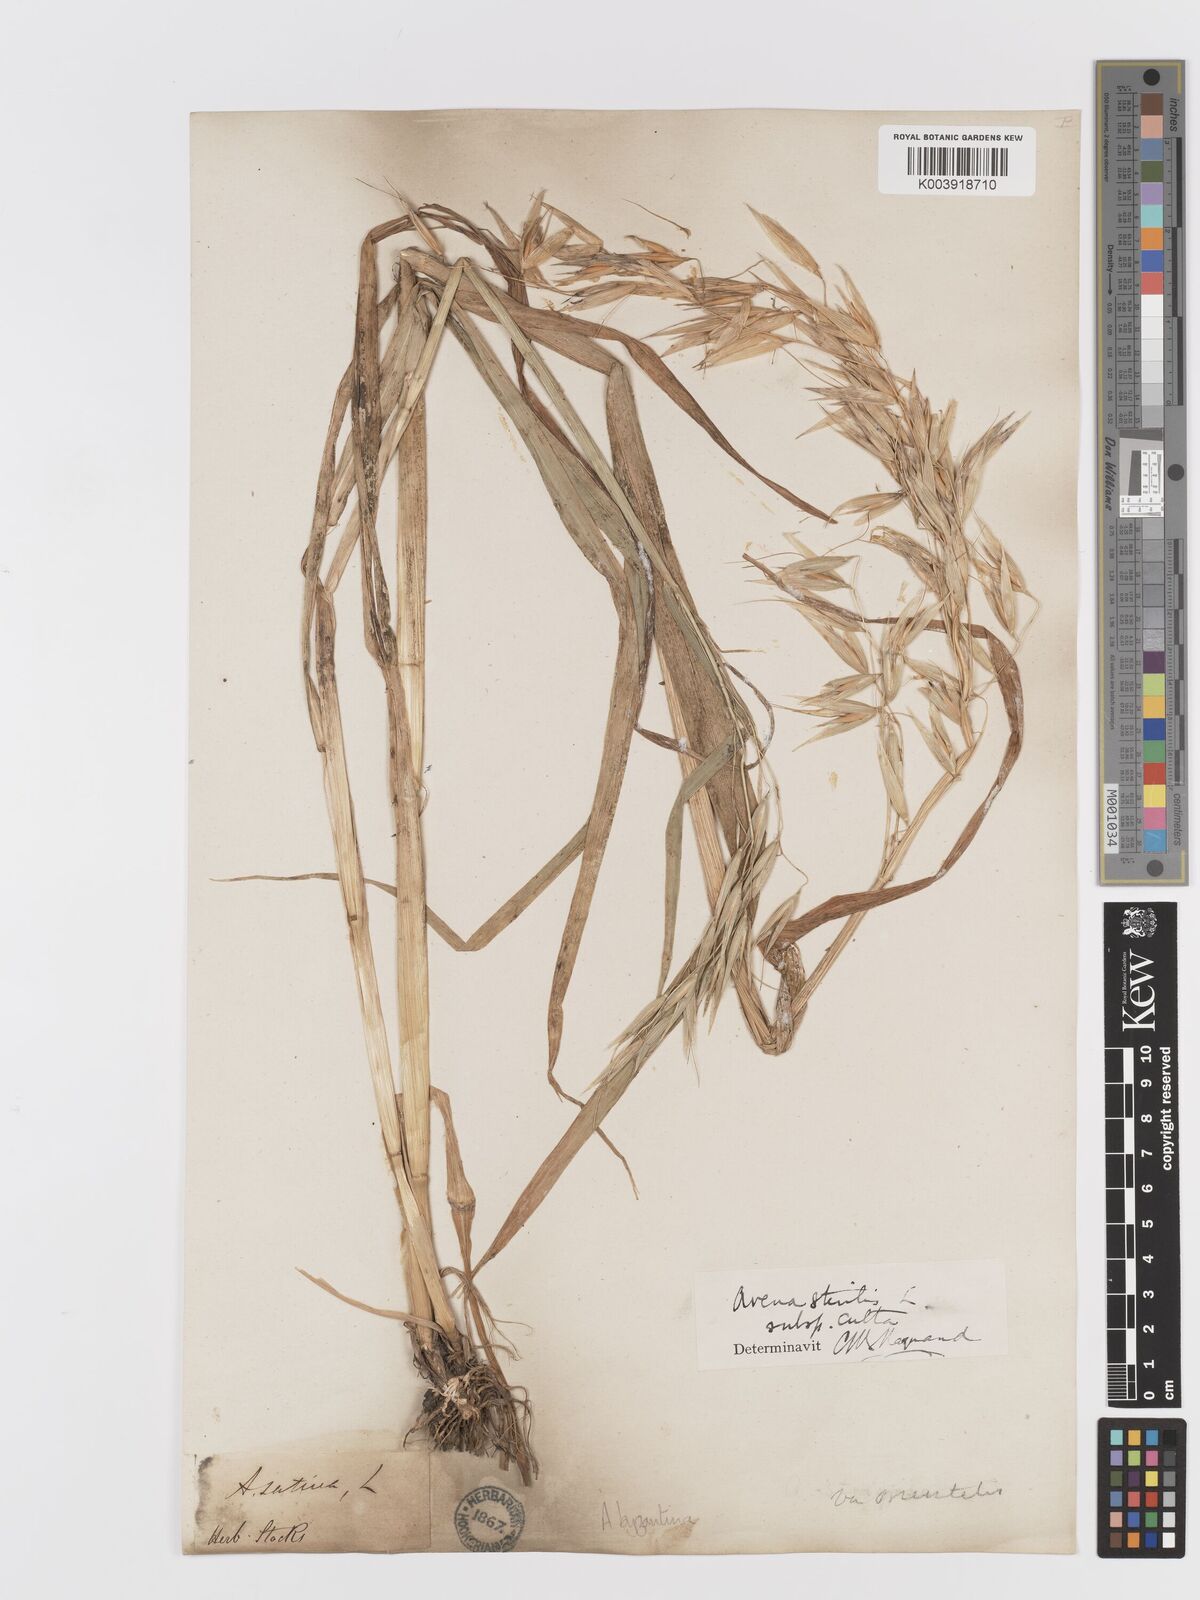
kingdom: Plantae
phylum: Tracheophyta
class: Liliopsida
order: Poales
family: Poaceae
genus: Avena
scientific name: Avena byzantina
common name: Algerian oat
